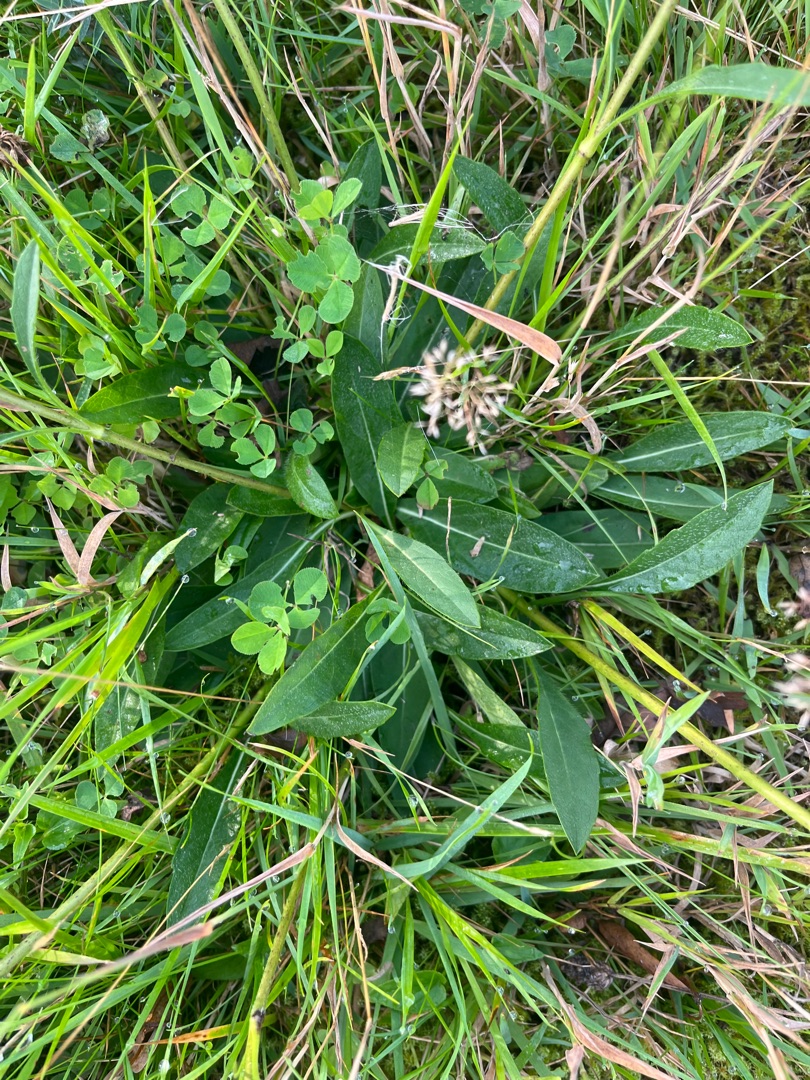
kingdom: Plantae
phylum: Tracheophyta
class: Magnoliopsida
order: Dipsacales
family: Caprifoliaceae
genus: Succisa
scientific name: Succisa pratensis
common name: Djævelsbid
